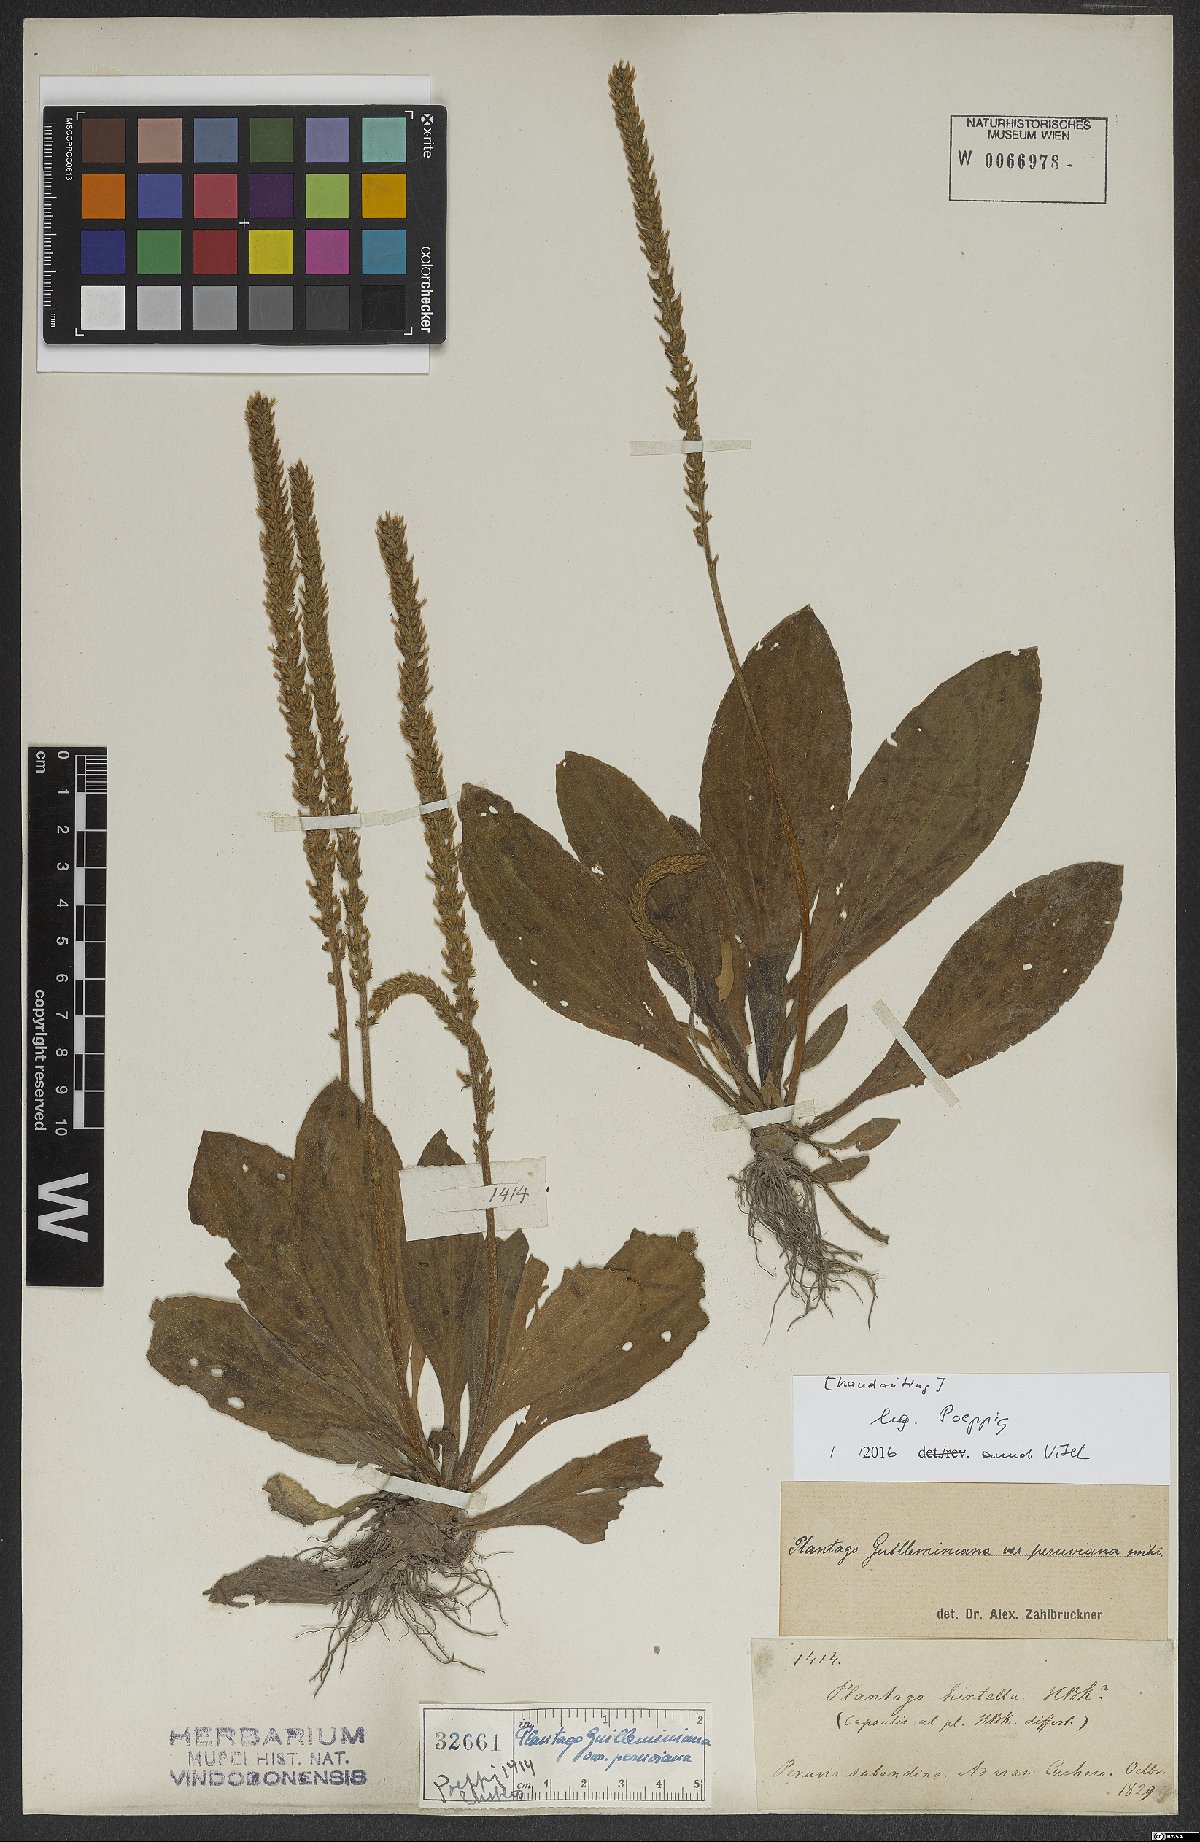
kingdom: Plantae
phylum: Tracheophyta
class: Magnoliopsida
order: Lamiales
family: Plantaginaceae
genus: Plantago
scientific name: Plantago guilleminiana
